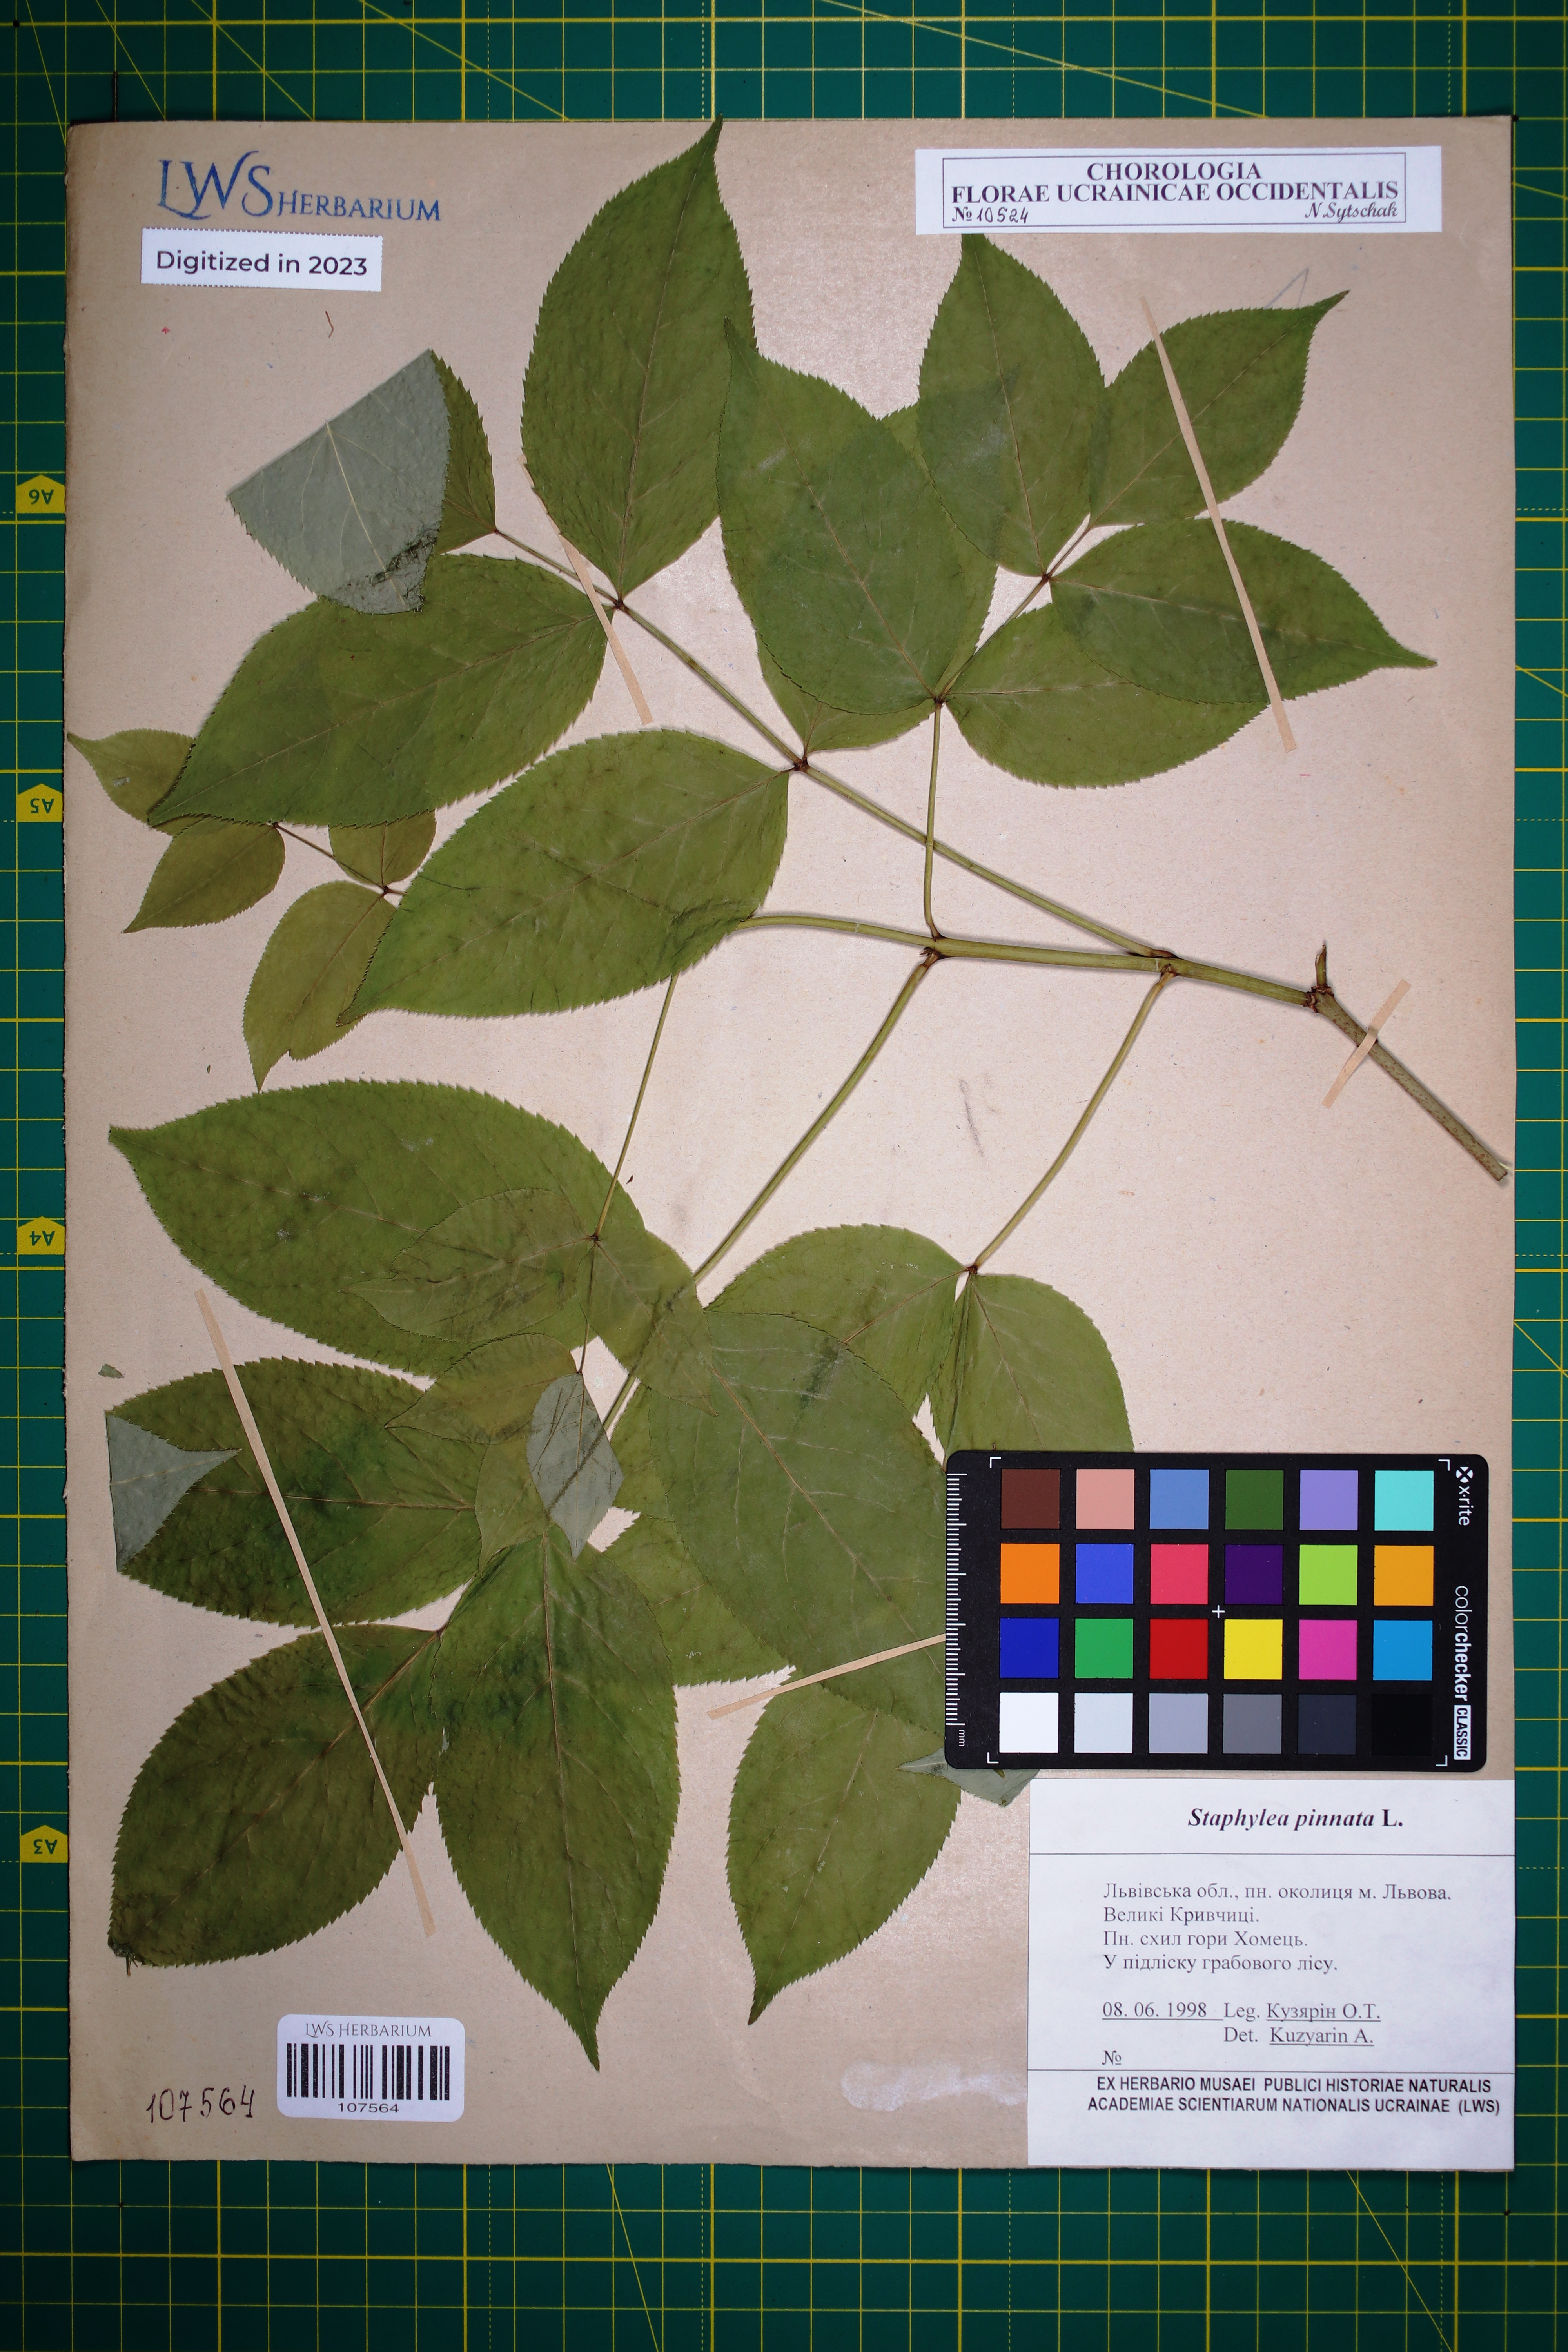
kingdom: Plantae
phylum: Tracheophyta
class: Magnoliopsida
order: Crossosomatales
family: Staphyleaceae
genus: Staphylea
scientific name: Staphylea pinnata
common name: Bladdernut
